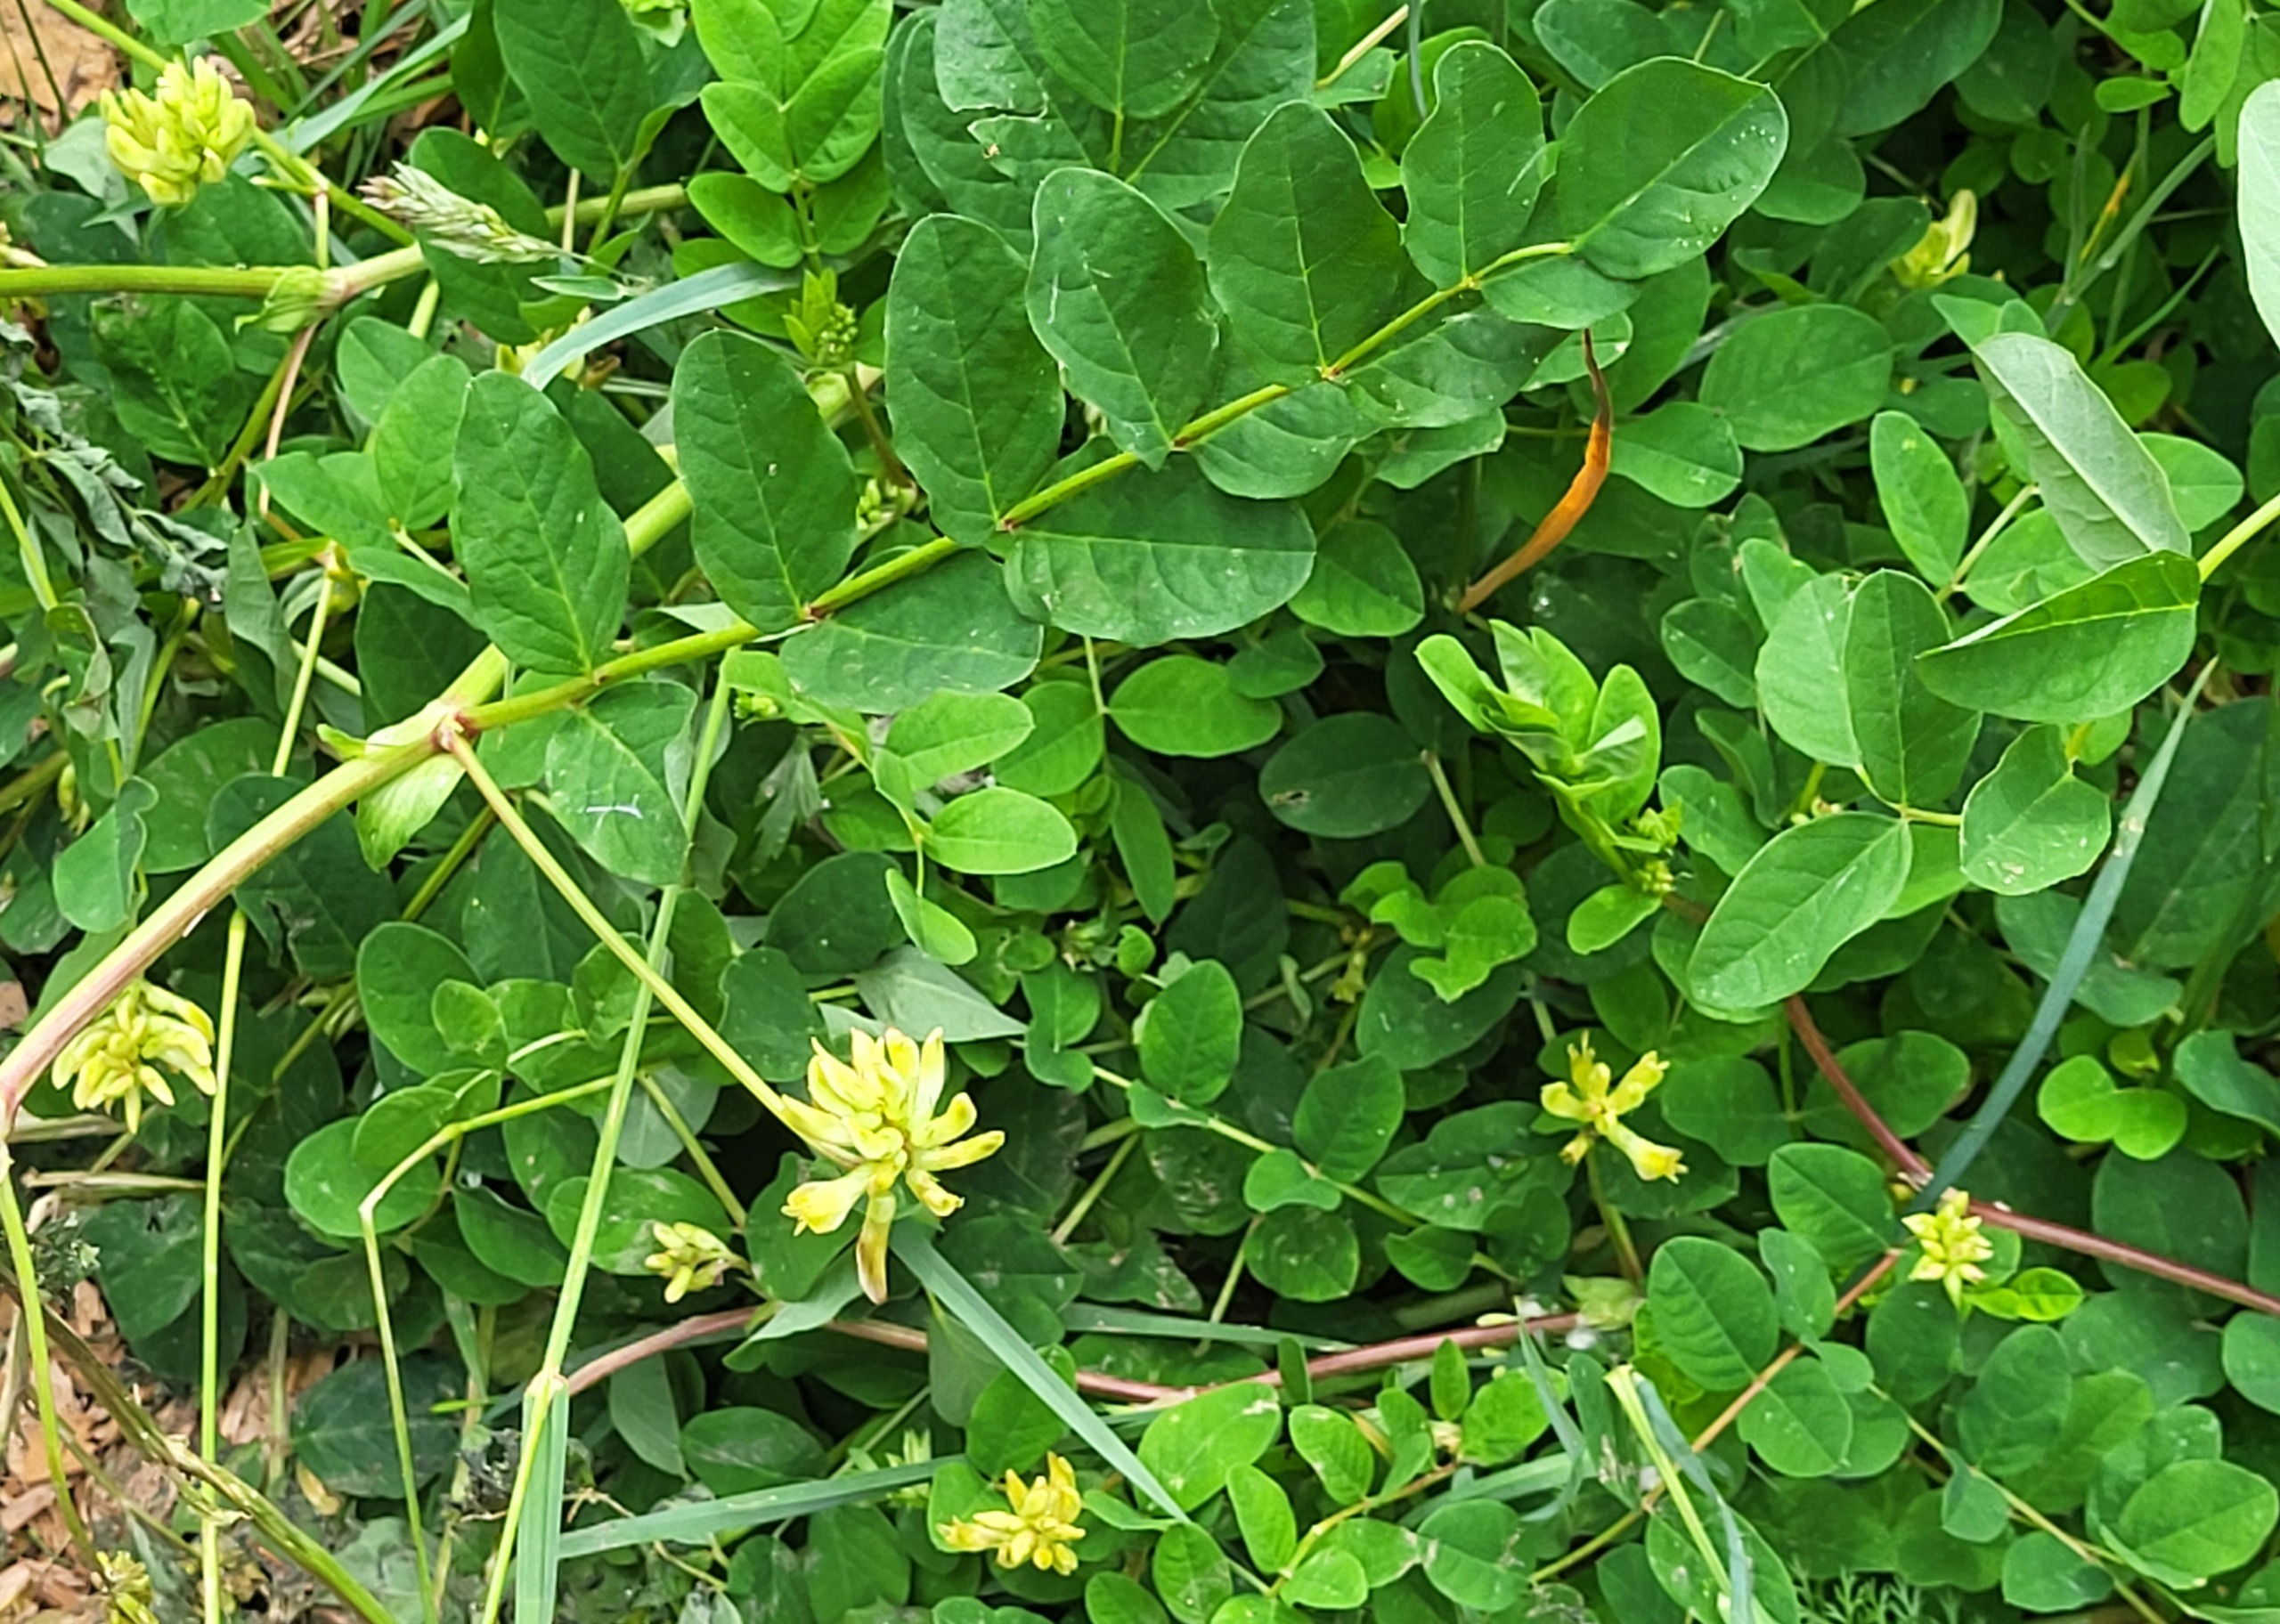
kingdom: Plantae
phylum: Tracheophyta
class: Magnoliopsida
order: Fabales
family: Fabaceae
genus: Astragalus
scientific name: Astragalus glycyphyllos
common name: Sød astragel
